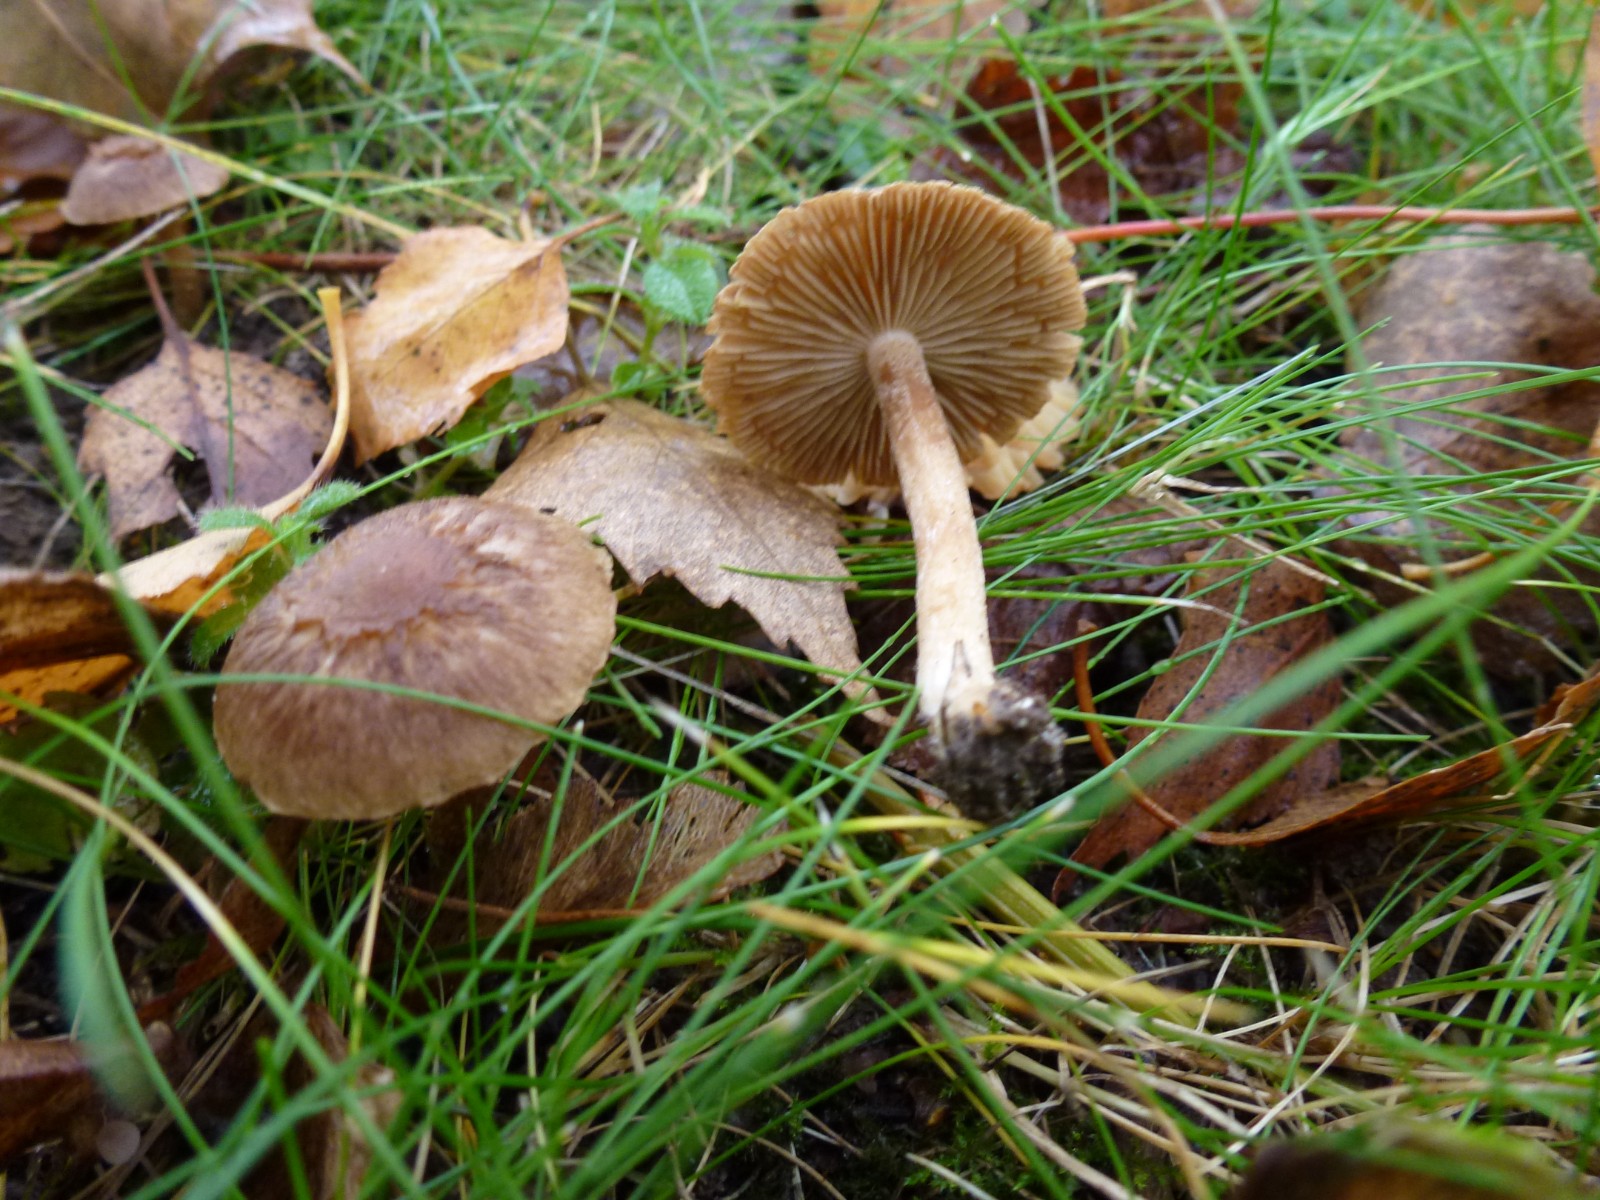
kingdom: Fungi
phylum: Basidiomycota
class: Agaricomycetes
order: Agaricales
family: Inocybaceae
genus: Inocybe
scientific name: Inocybe
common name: trævlhat
